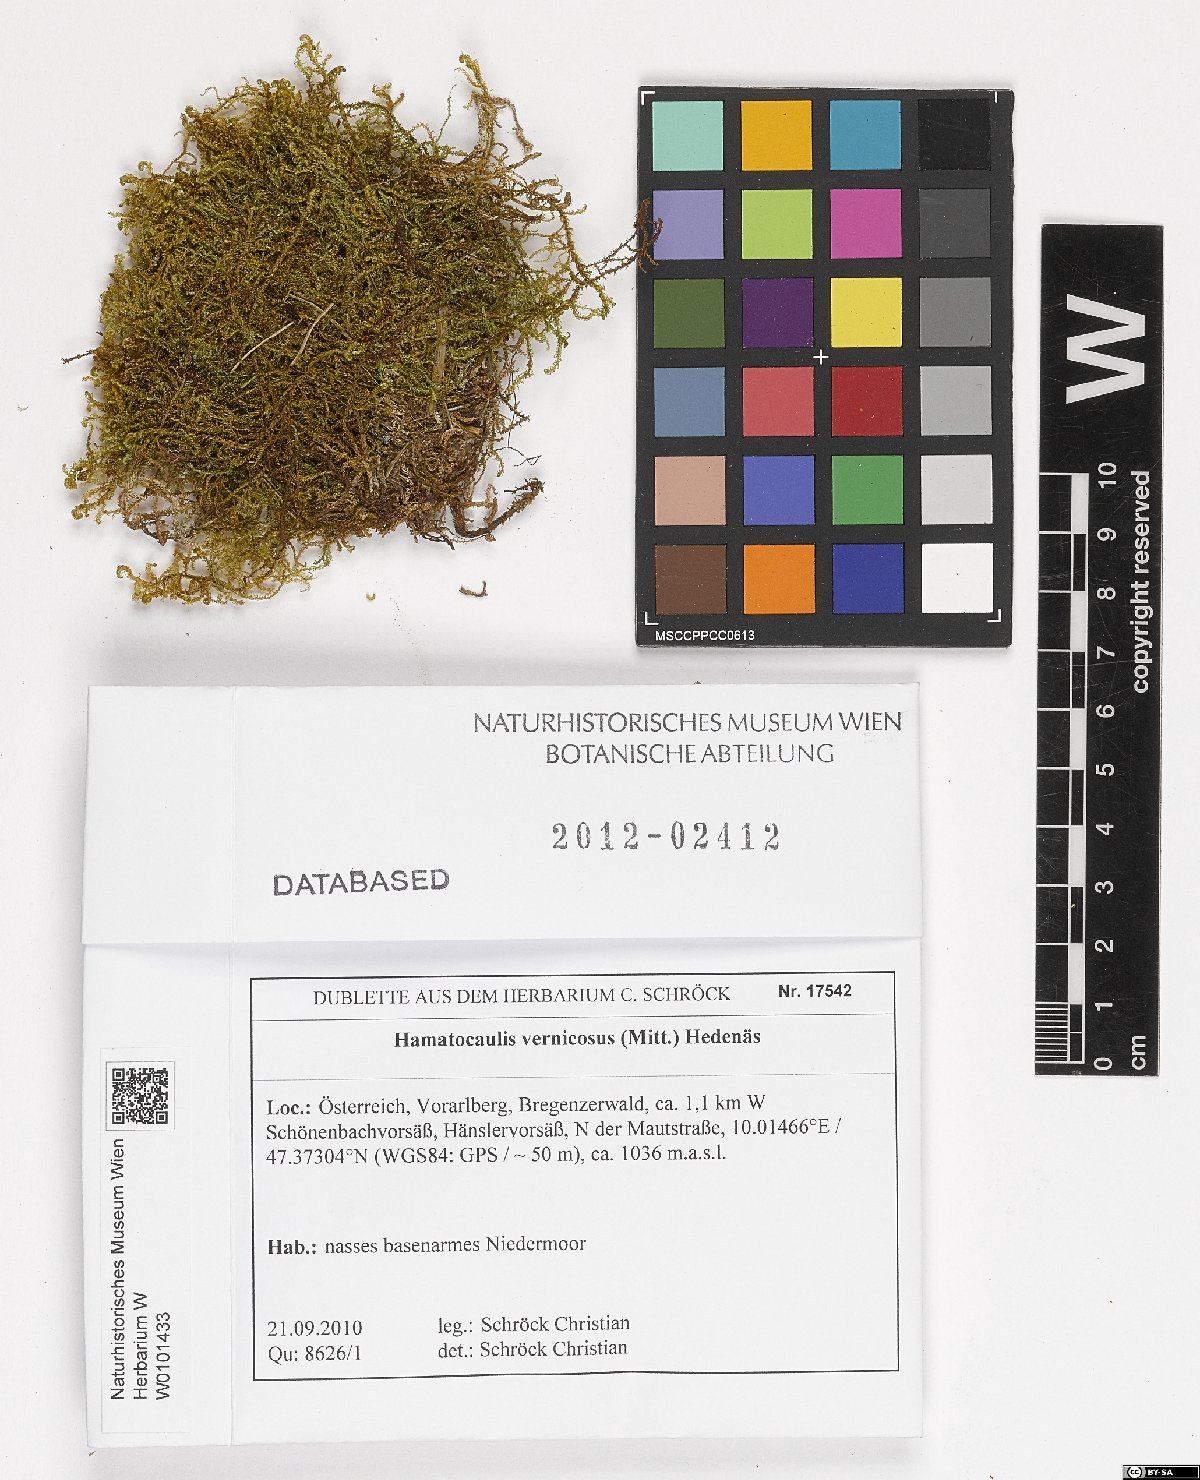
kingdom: Plantae
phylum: Bryophyta
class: Bryopsida
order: Hypnales
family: Scorpidiaceae
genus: Hamatocaulis
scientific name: Hamatocaulis vernicosus
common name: Varnished hook moss
